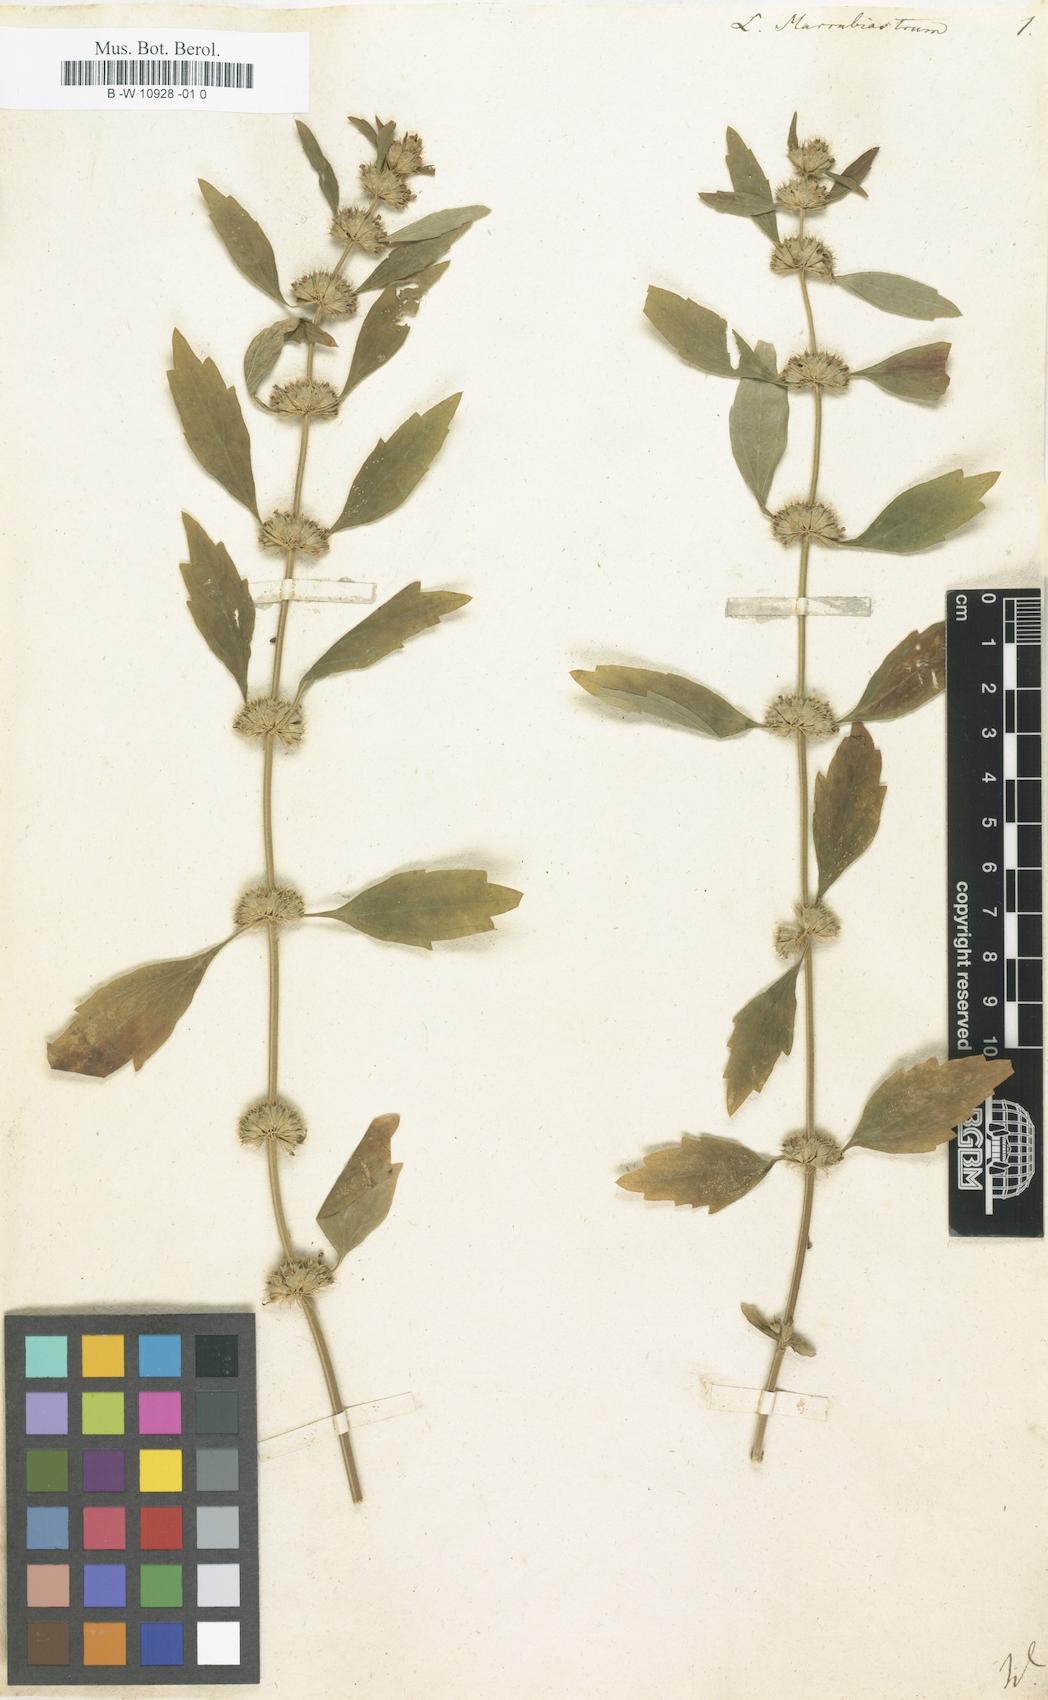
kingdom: Plantae
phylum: Tracheophyta
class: Magnoliopsida
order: Lamiales
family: Lamiaceae
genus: Leonurus
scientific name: Leonurus marrubiastrum
